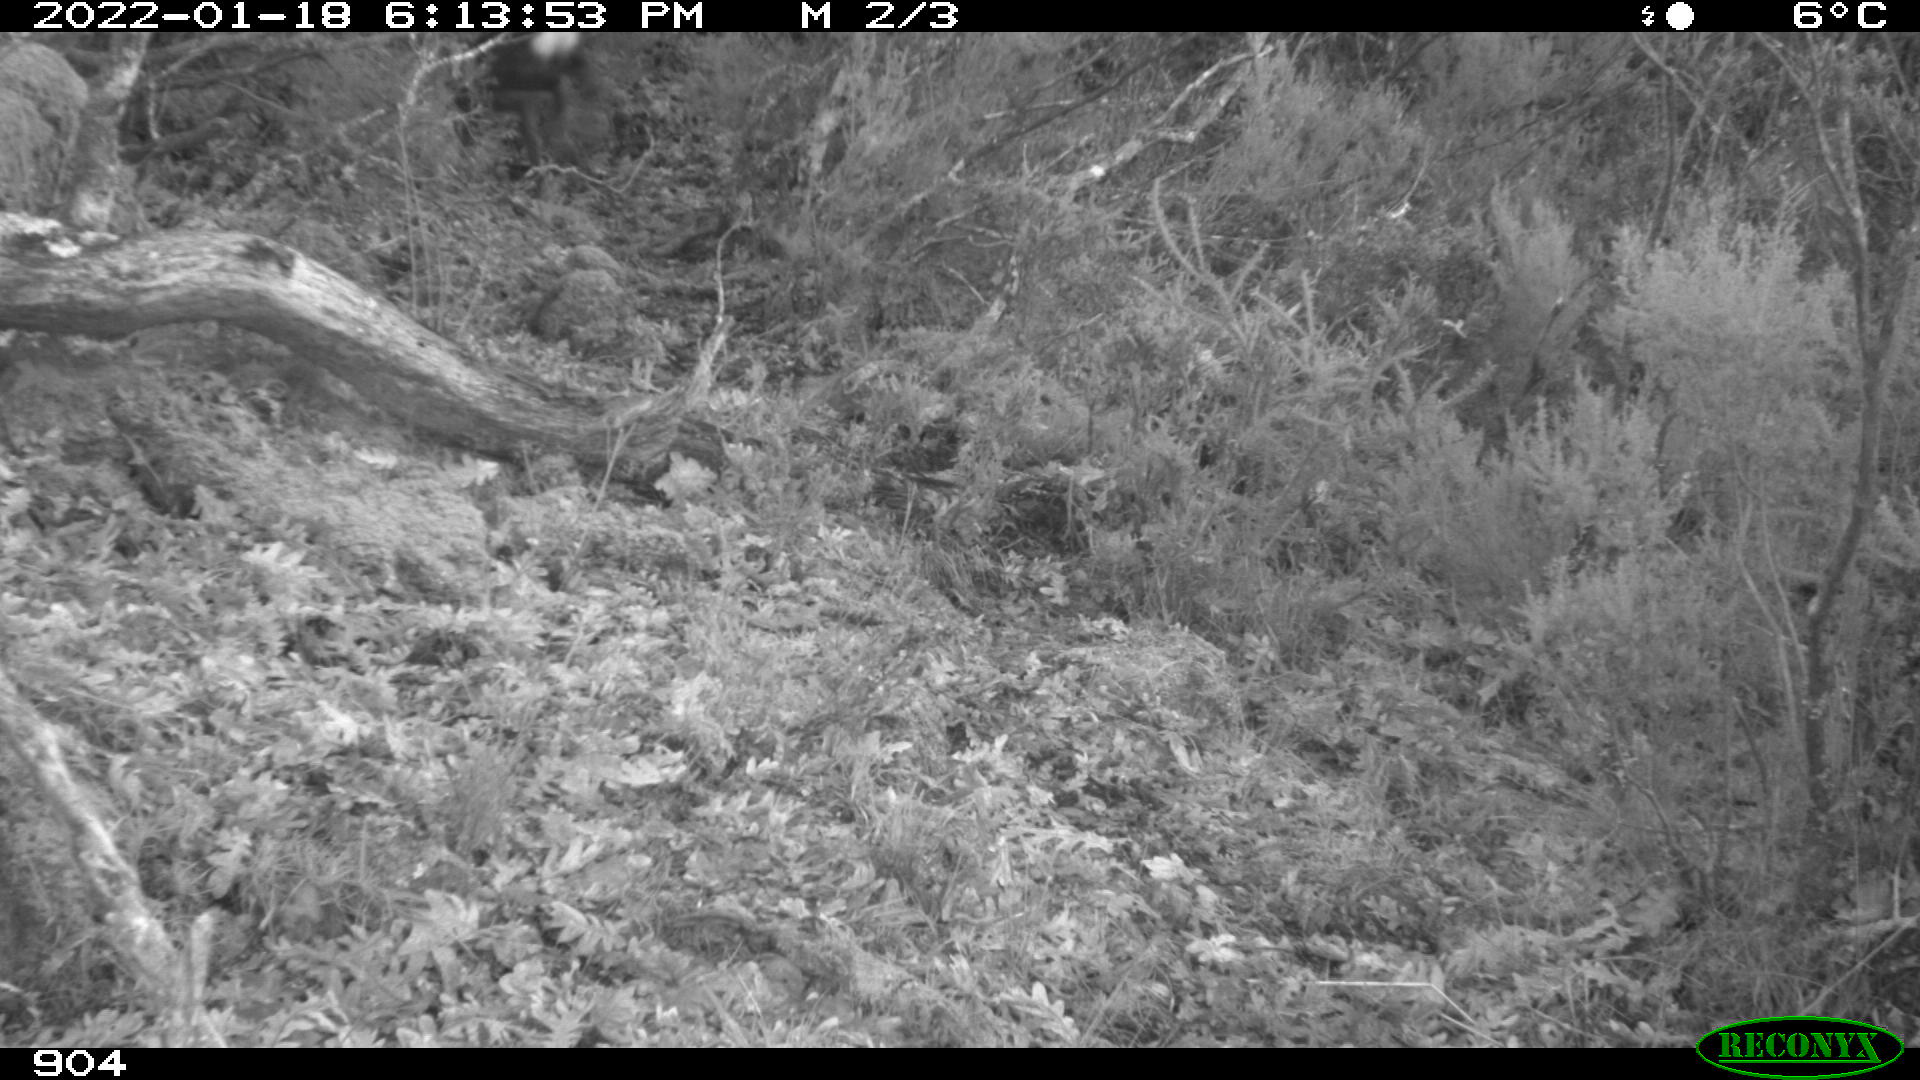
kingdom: Animalia
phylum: Chordata
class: Mammalia
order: Artiodactyla
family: Cervidae
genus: Capreolus
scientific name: Capreolus capreolus
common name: Western roe deer
